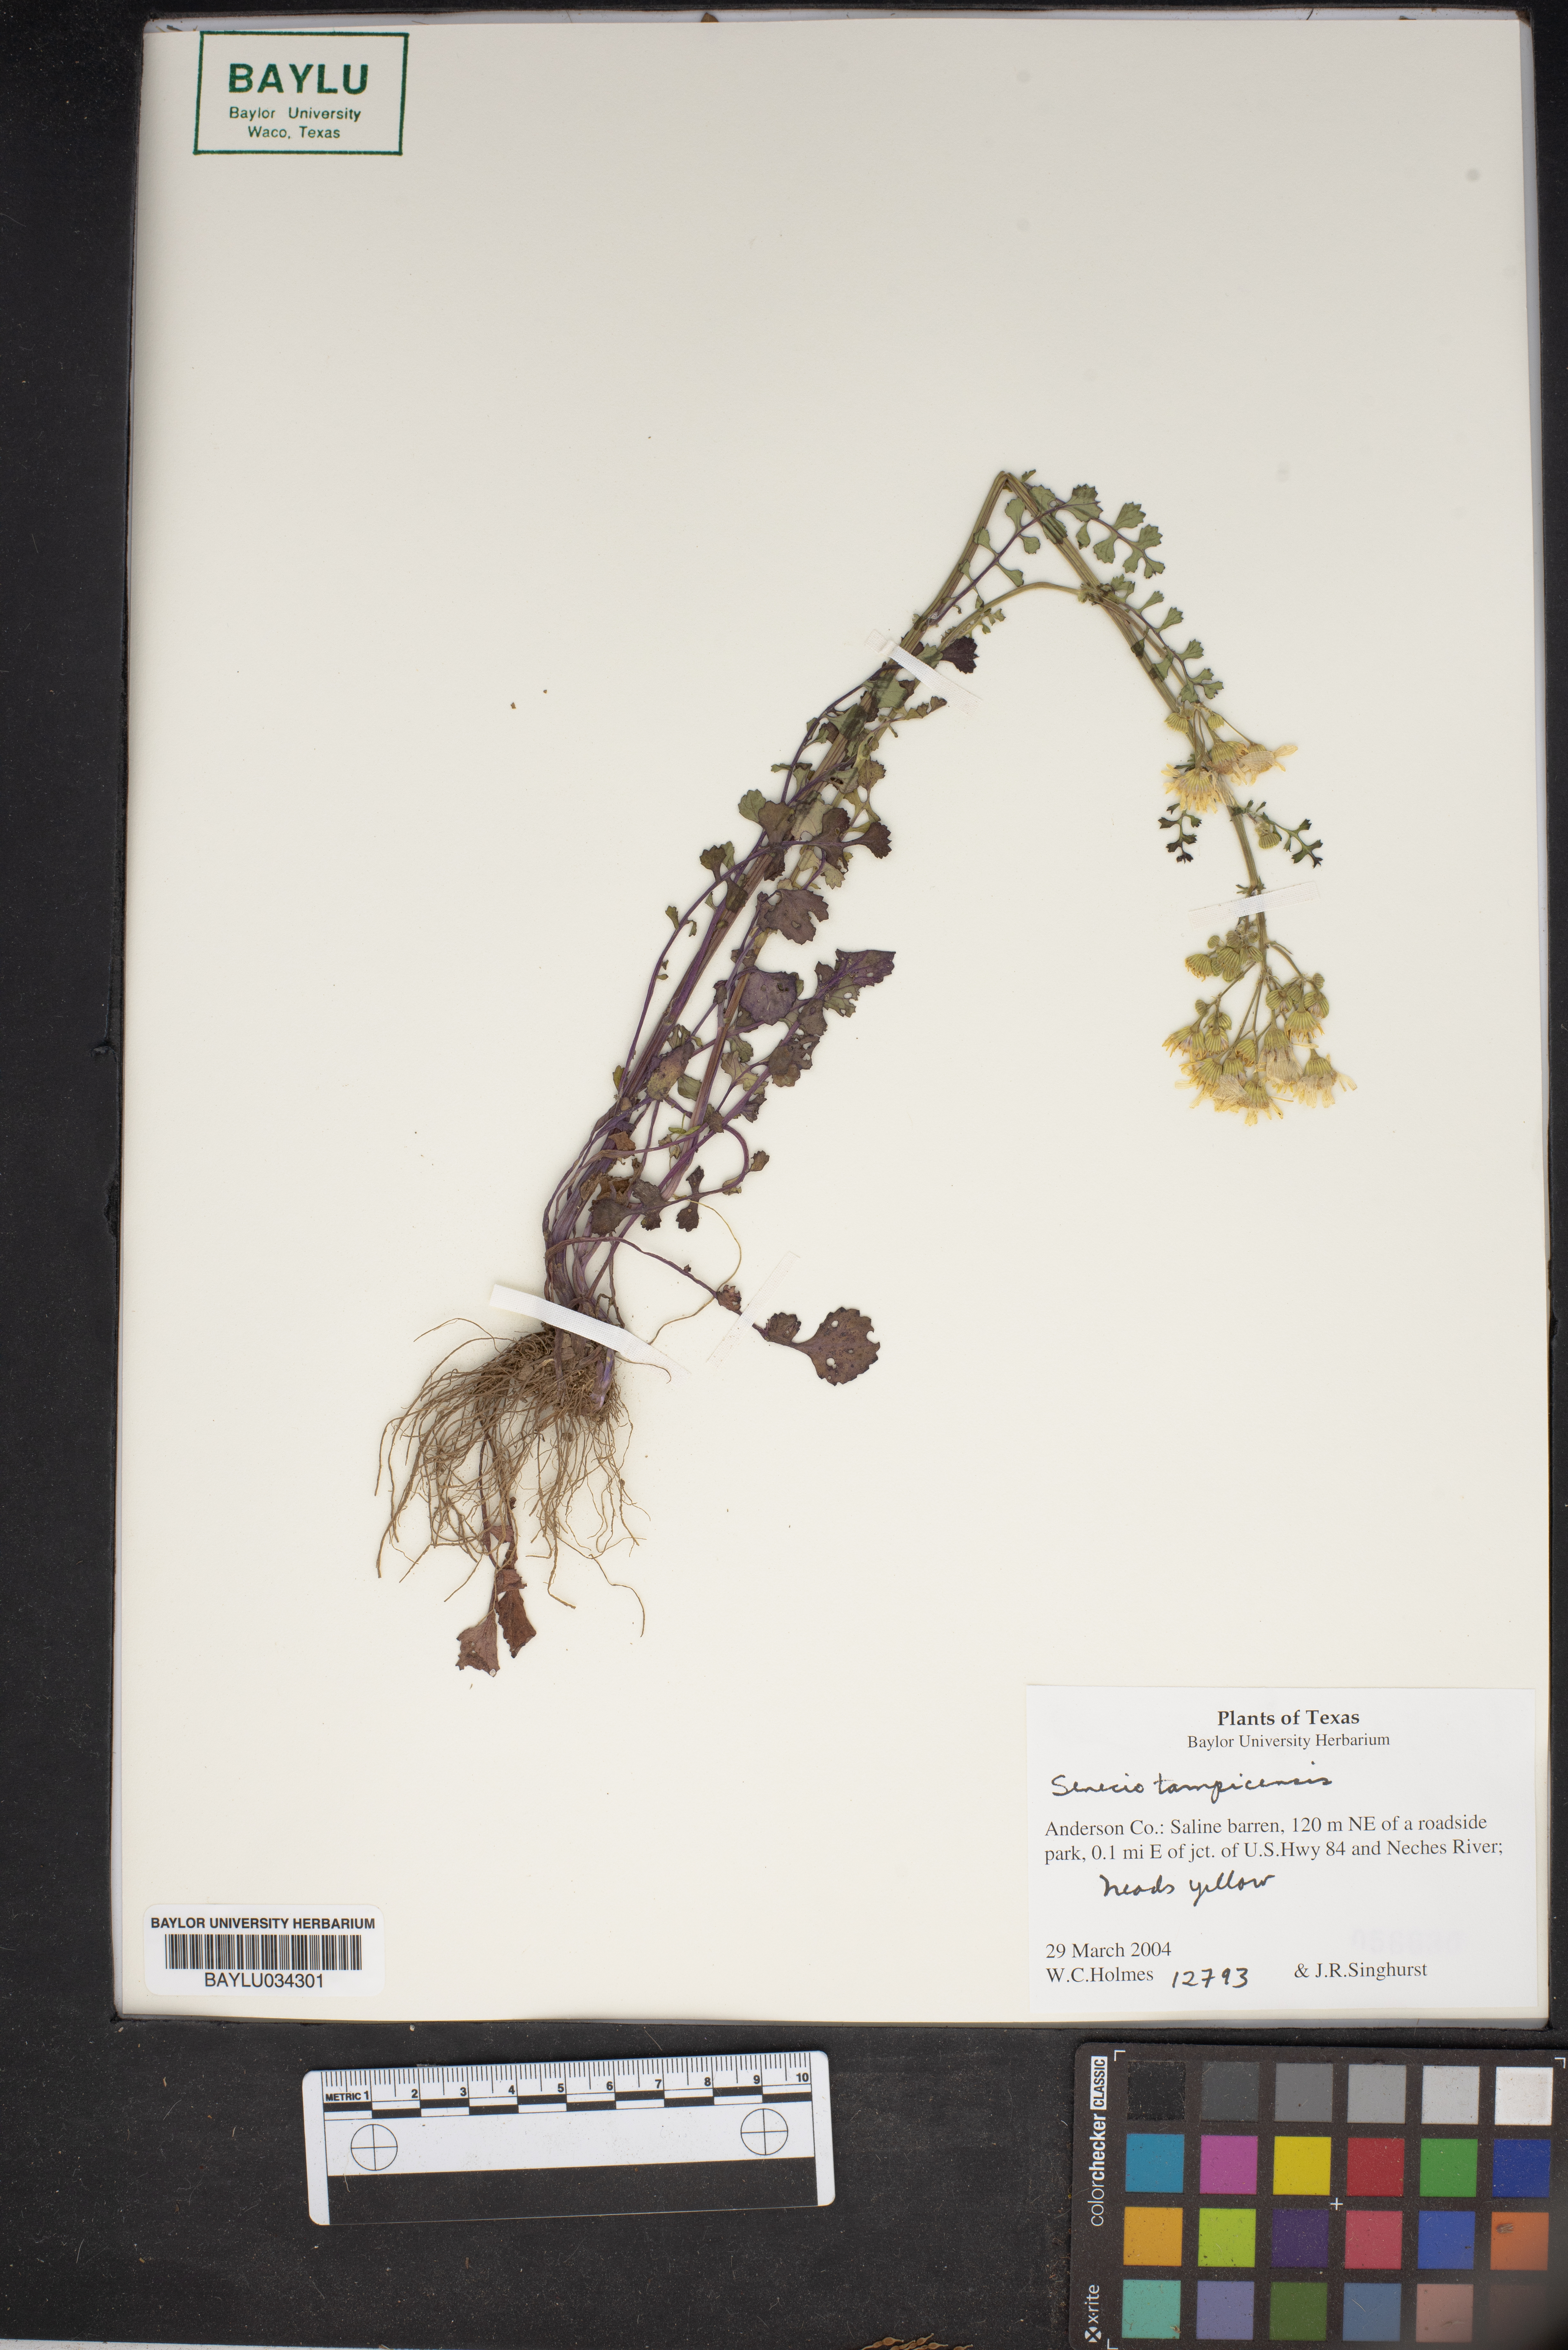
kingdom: Plantae
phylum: Tracheophyta
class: Magnoliopsida
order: Asterales
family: Asteraceae
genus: Packera
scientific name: Packera tampicana
